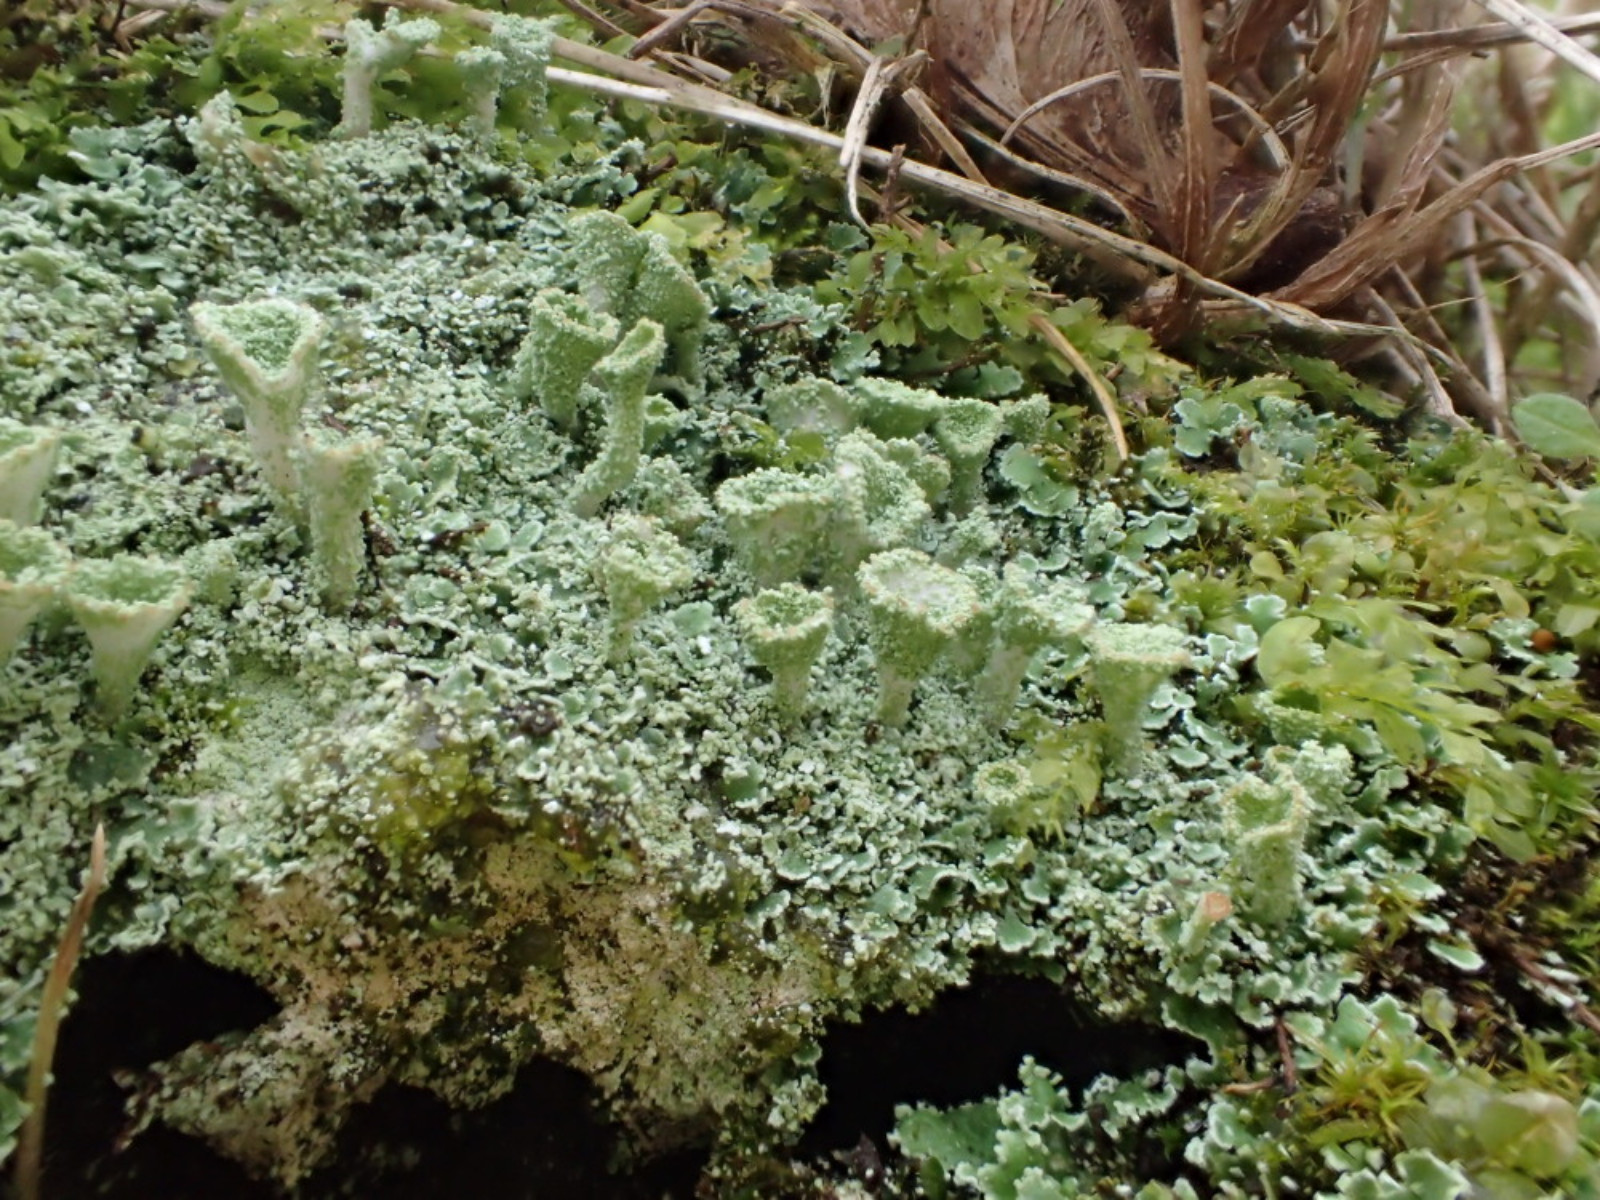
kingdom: Fungi
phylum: Ascomycota
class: Lecanoromycetes
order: Lecanorales
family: Cladoniaceae
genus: Cladonia
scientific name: Cladonia fimbriata
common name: bleggrøn bægerlav
